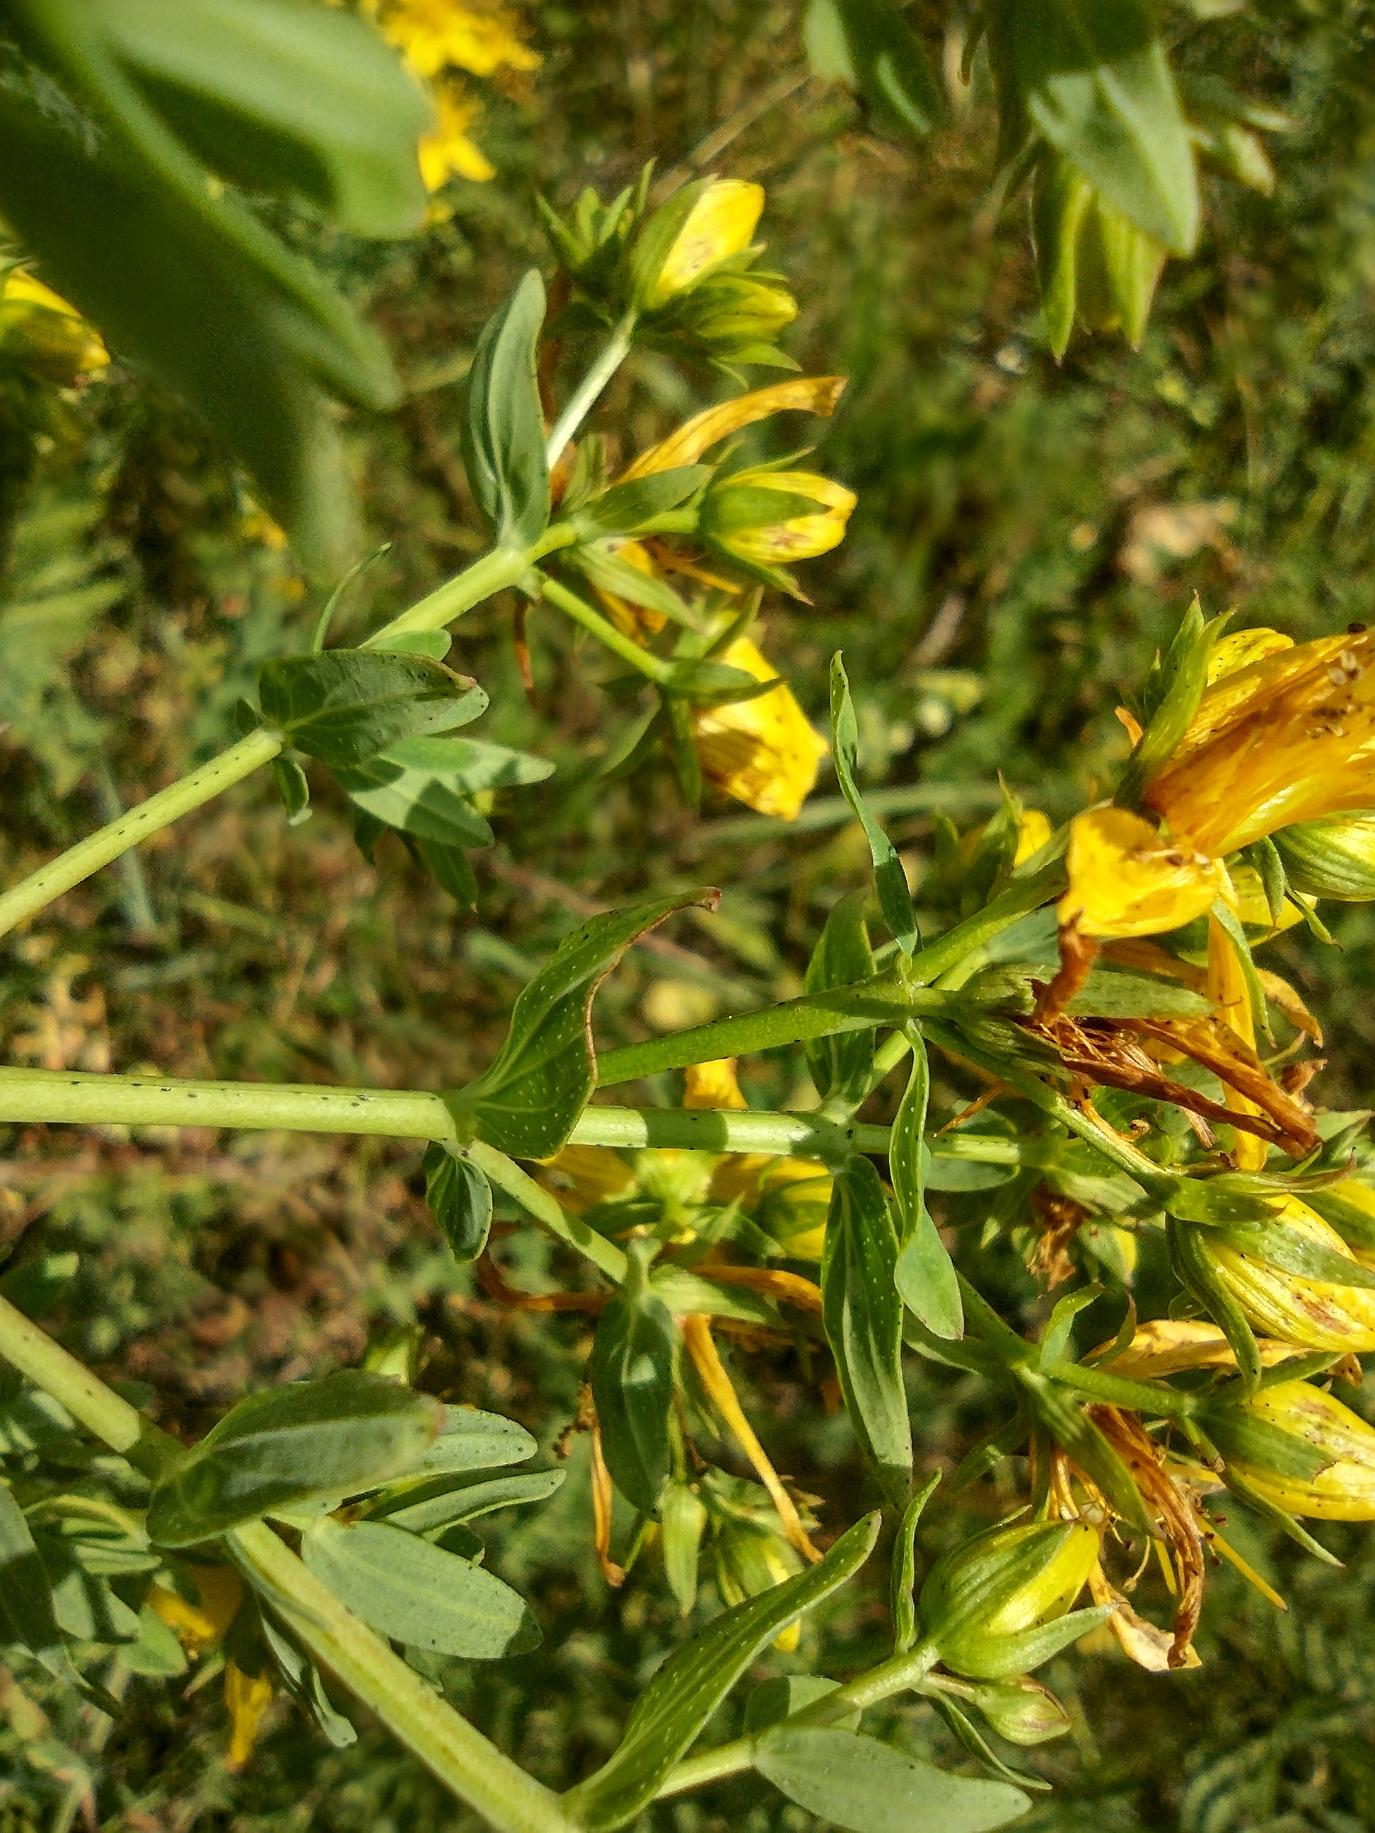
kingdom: Plantae
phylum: Tracheophyta
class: Magnoliopsida
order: Malpighiales
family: Hypericaceae
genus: Hypericum
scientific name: Hypericum perforatum
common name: Prikbladet perikon
